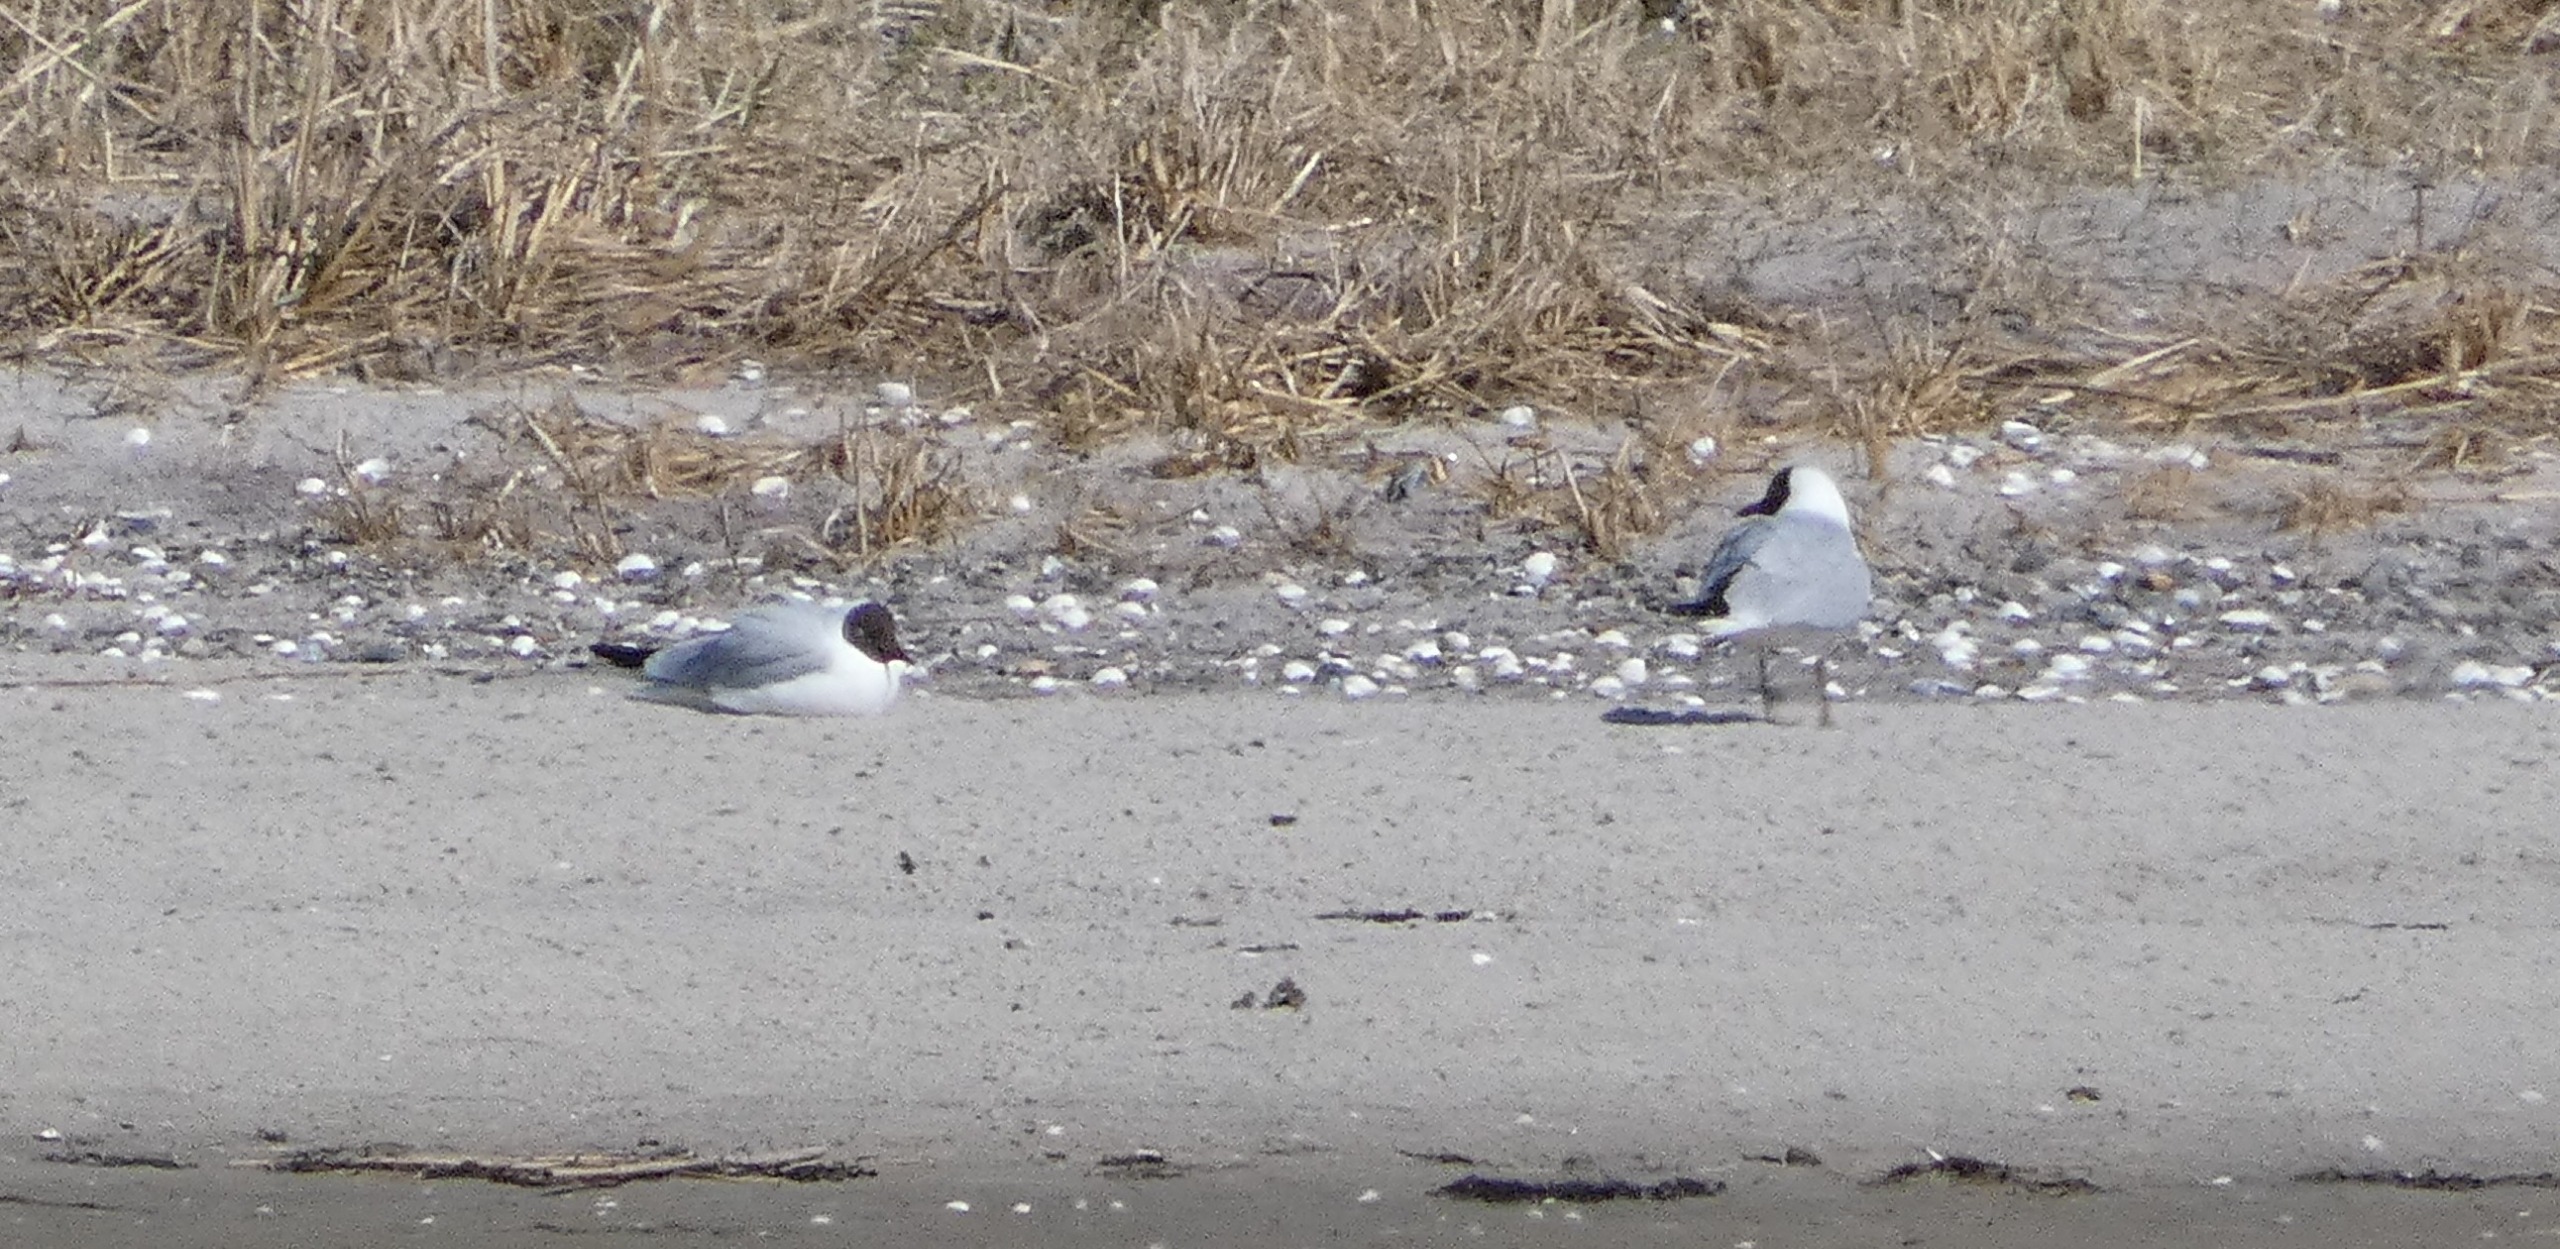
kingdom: Animalia
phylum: Chordata
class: Aves
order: Charadriiformes
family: Laridae
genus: Chroicocephalus
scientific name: Chroicocephalus ridibundus
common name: Hættemåge
